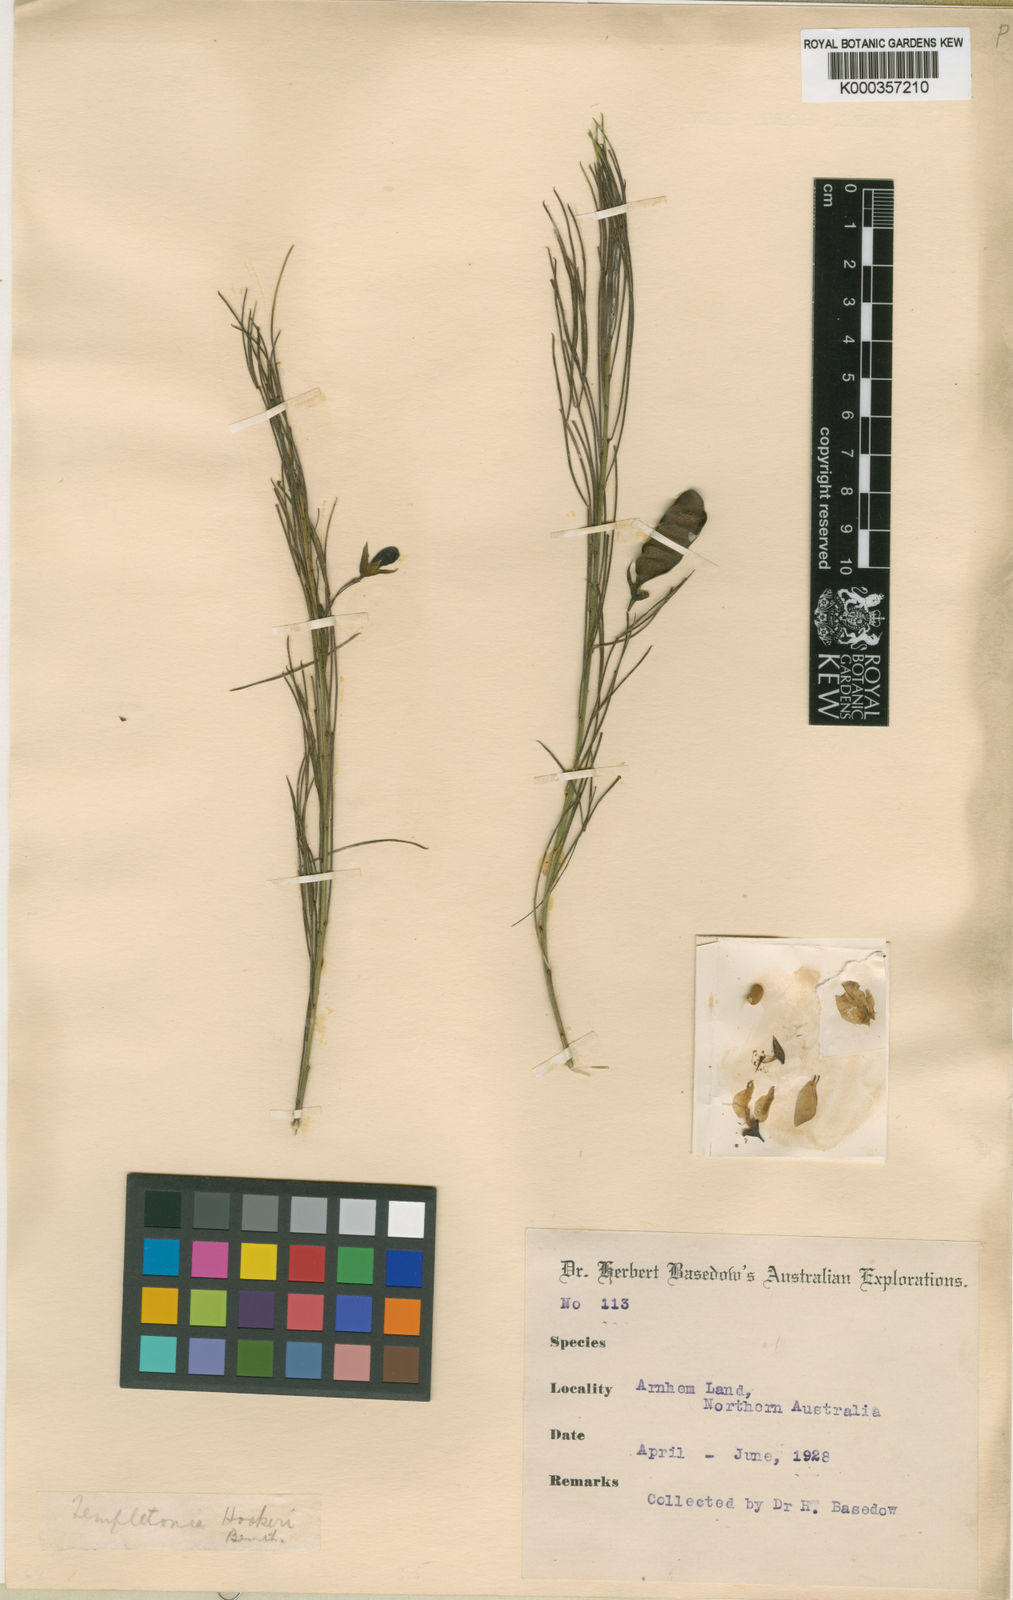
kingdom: Plantae
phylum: Tracheophyta
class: Magnoliopsida
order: Fabales
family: Fabaceae
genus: Templetonia
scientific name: Templetonia hookeri
